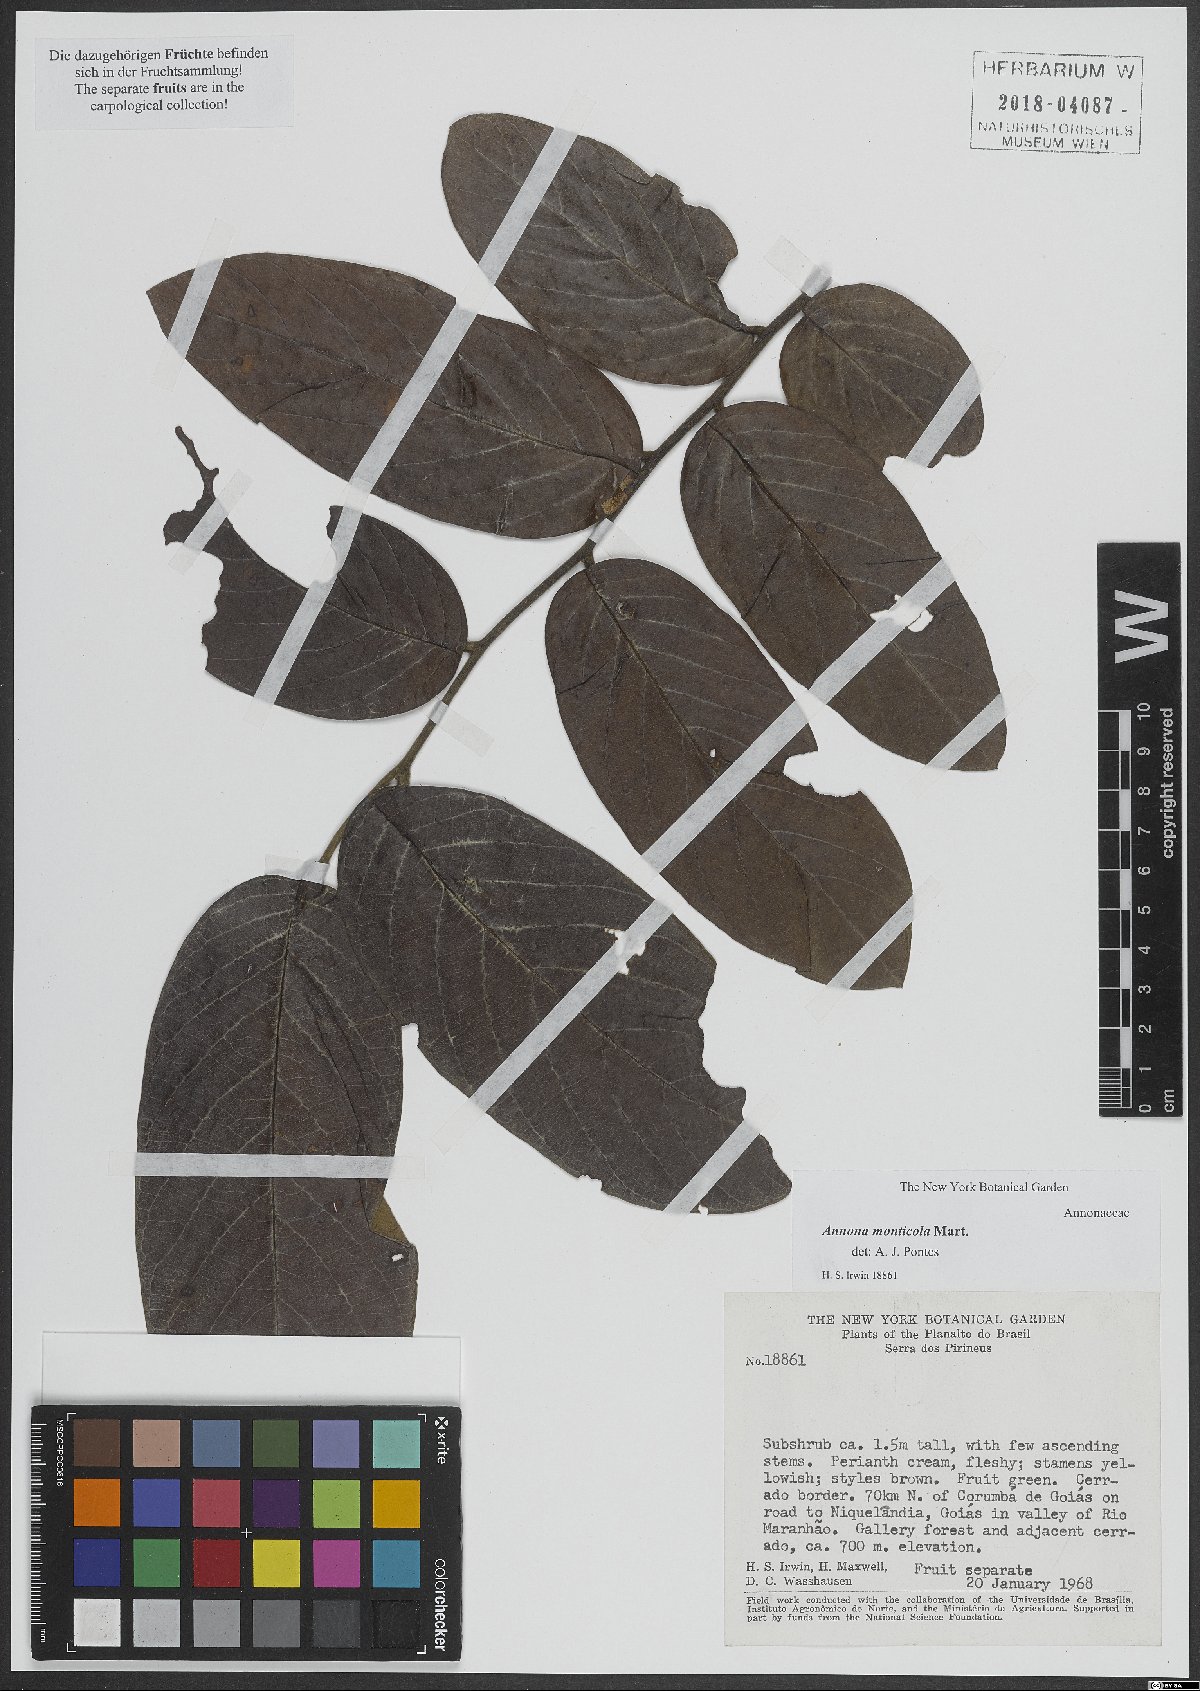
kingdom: Plantae
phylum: Tracheophyta
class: Magnoliopsida
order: Magnoliales
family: Annonaceae
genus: Annona
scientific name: Annona monticola
